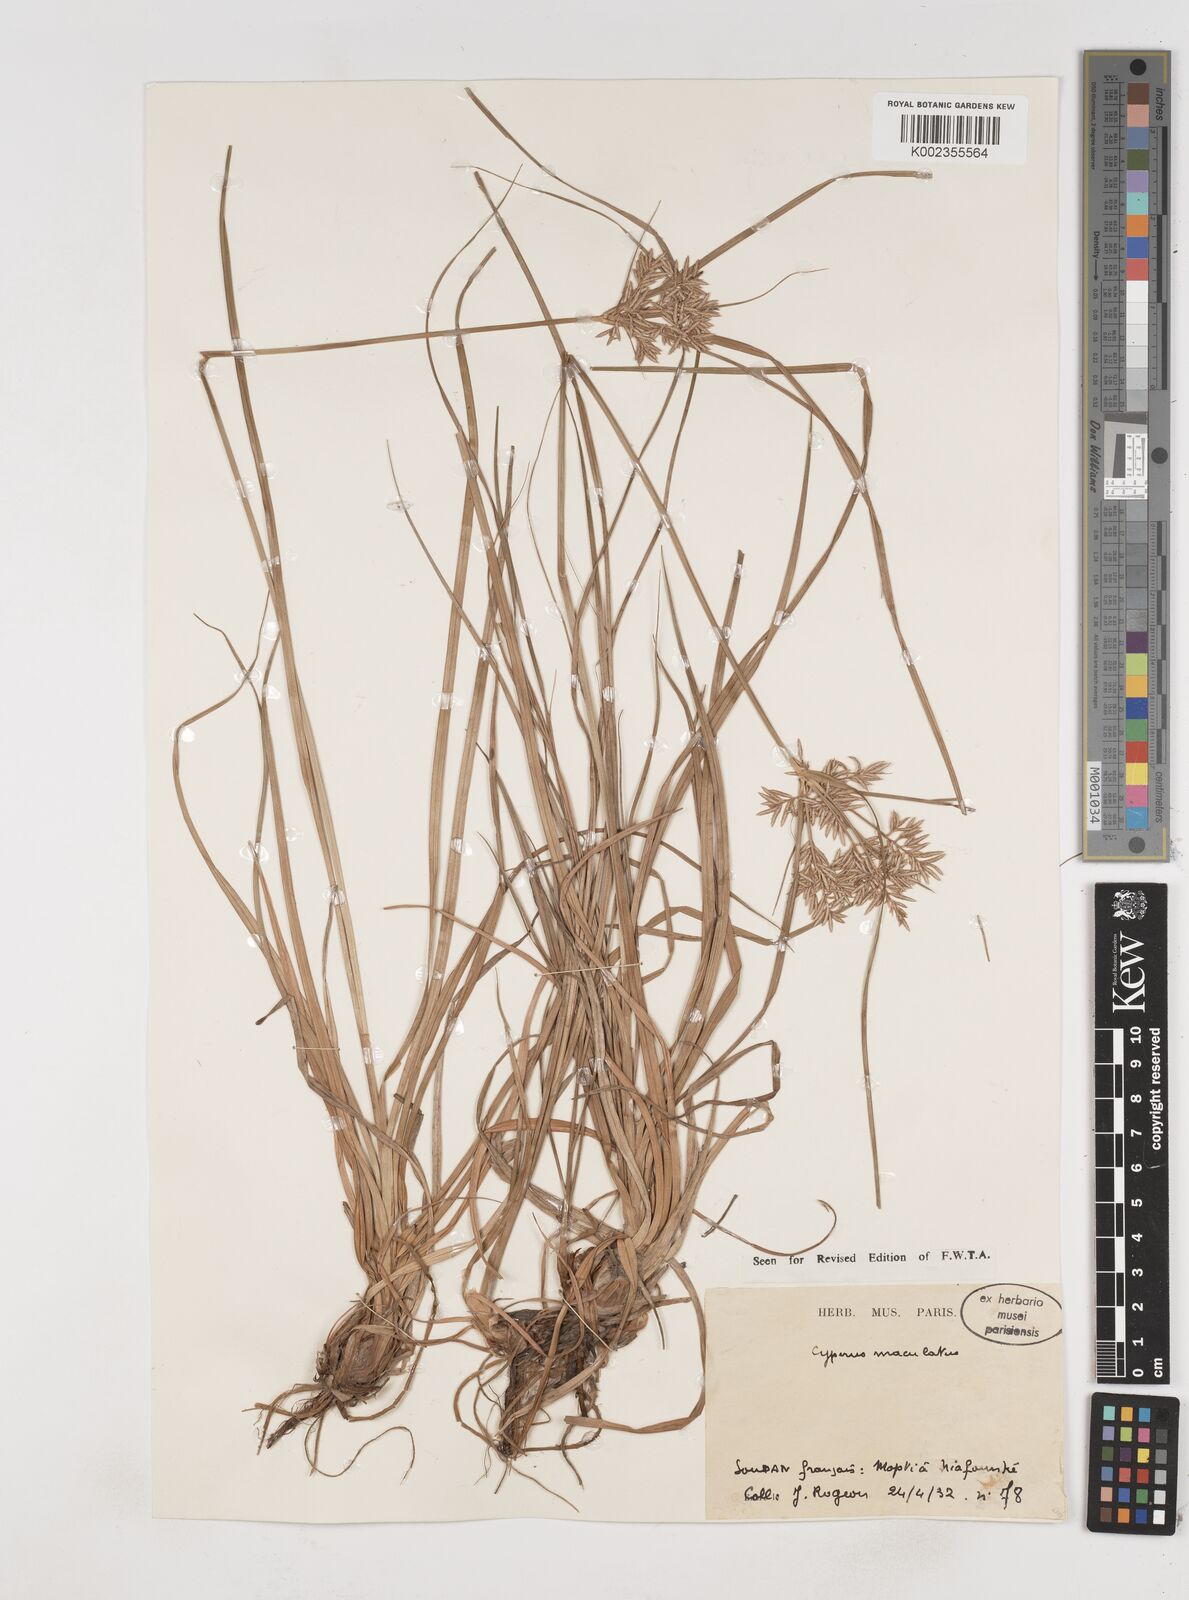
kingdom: Plantae
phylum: Tracheophyta
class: Liliopsida
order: Poales
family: Cyperaceae
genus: Cyperus
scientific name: Cyperus maculatus
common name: Maculated sedge
